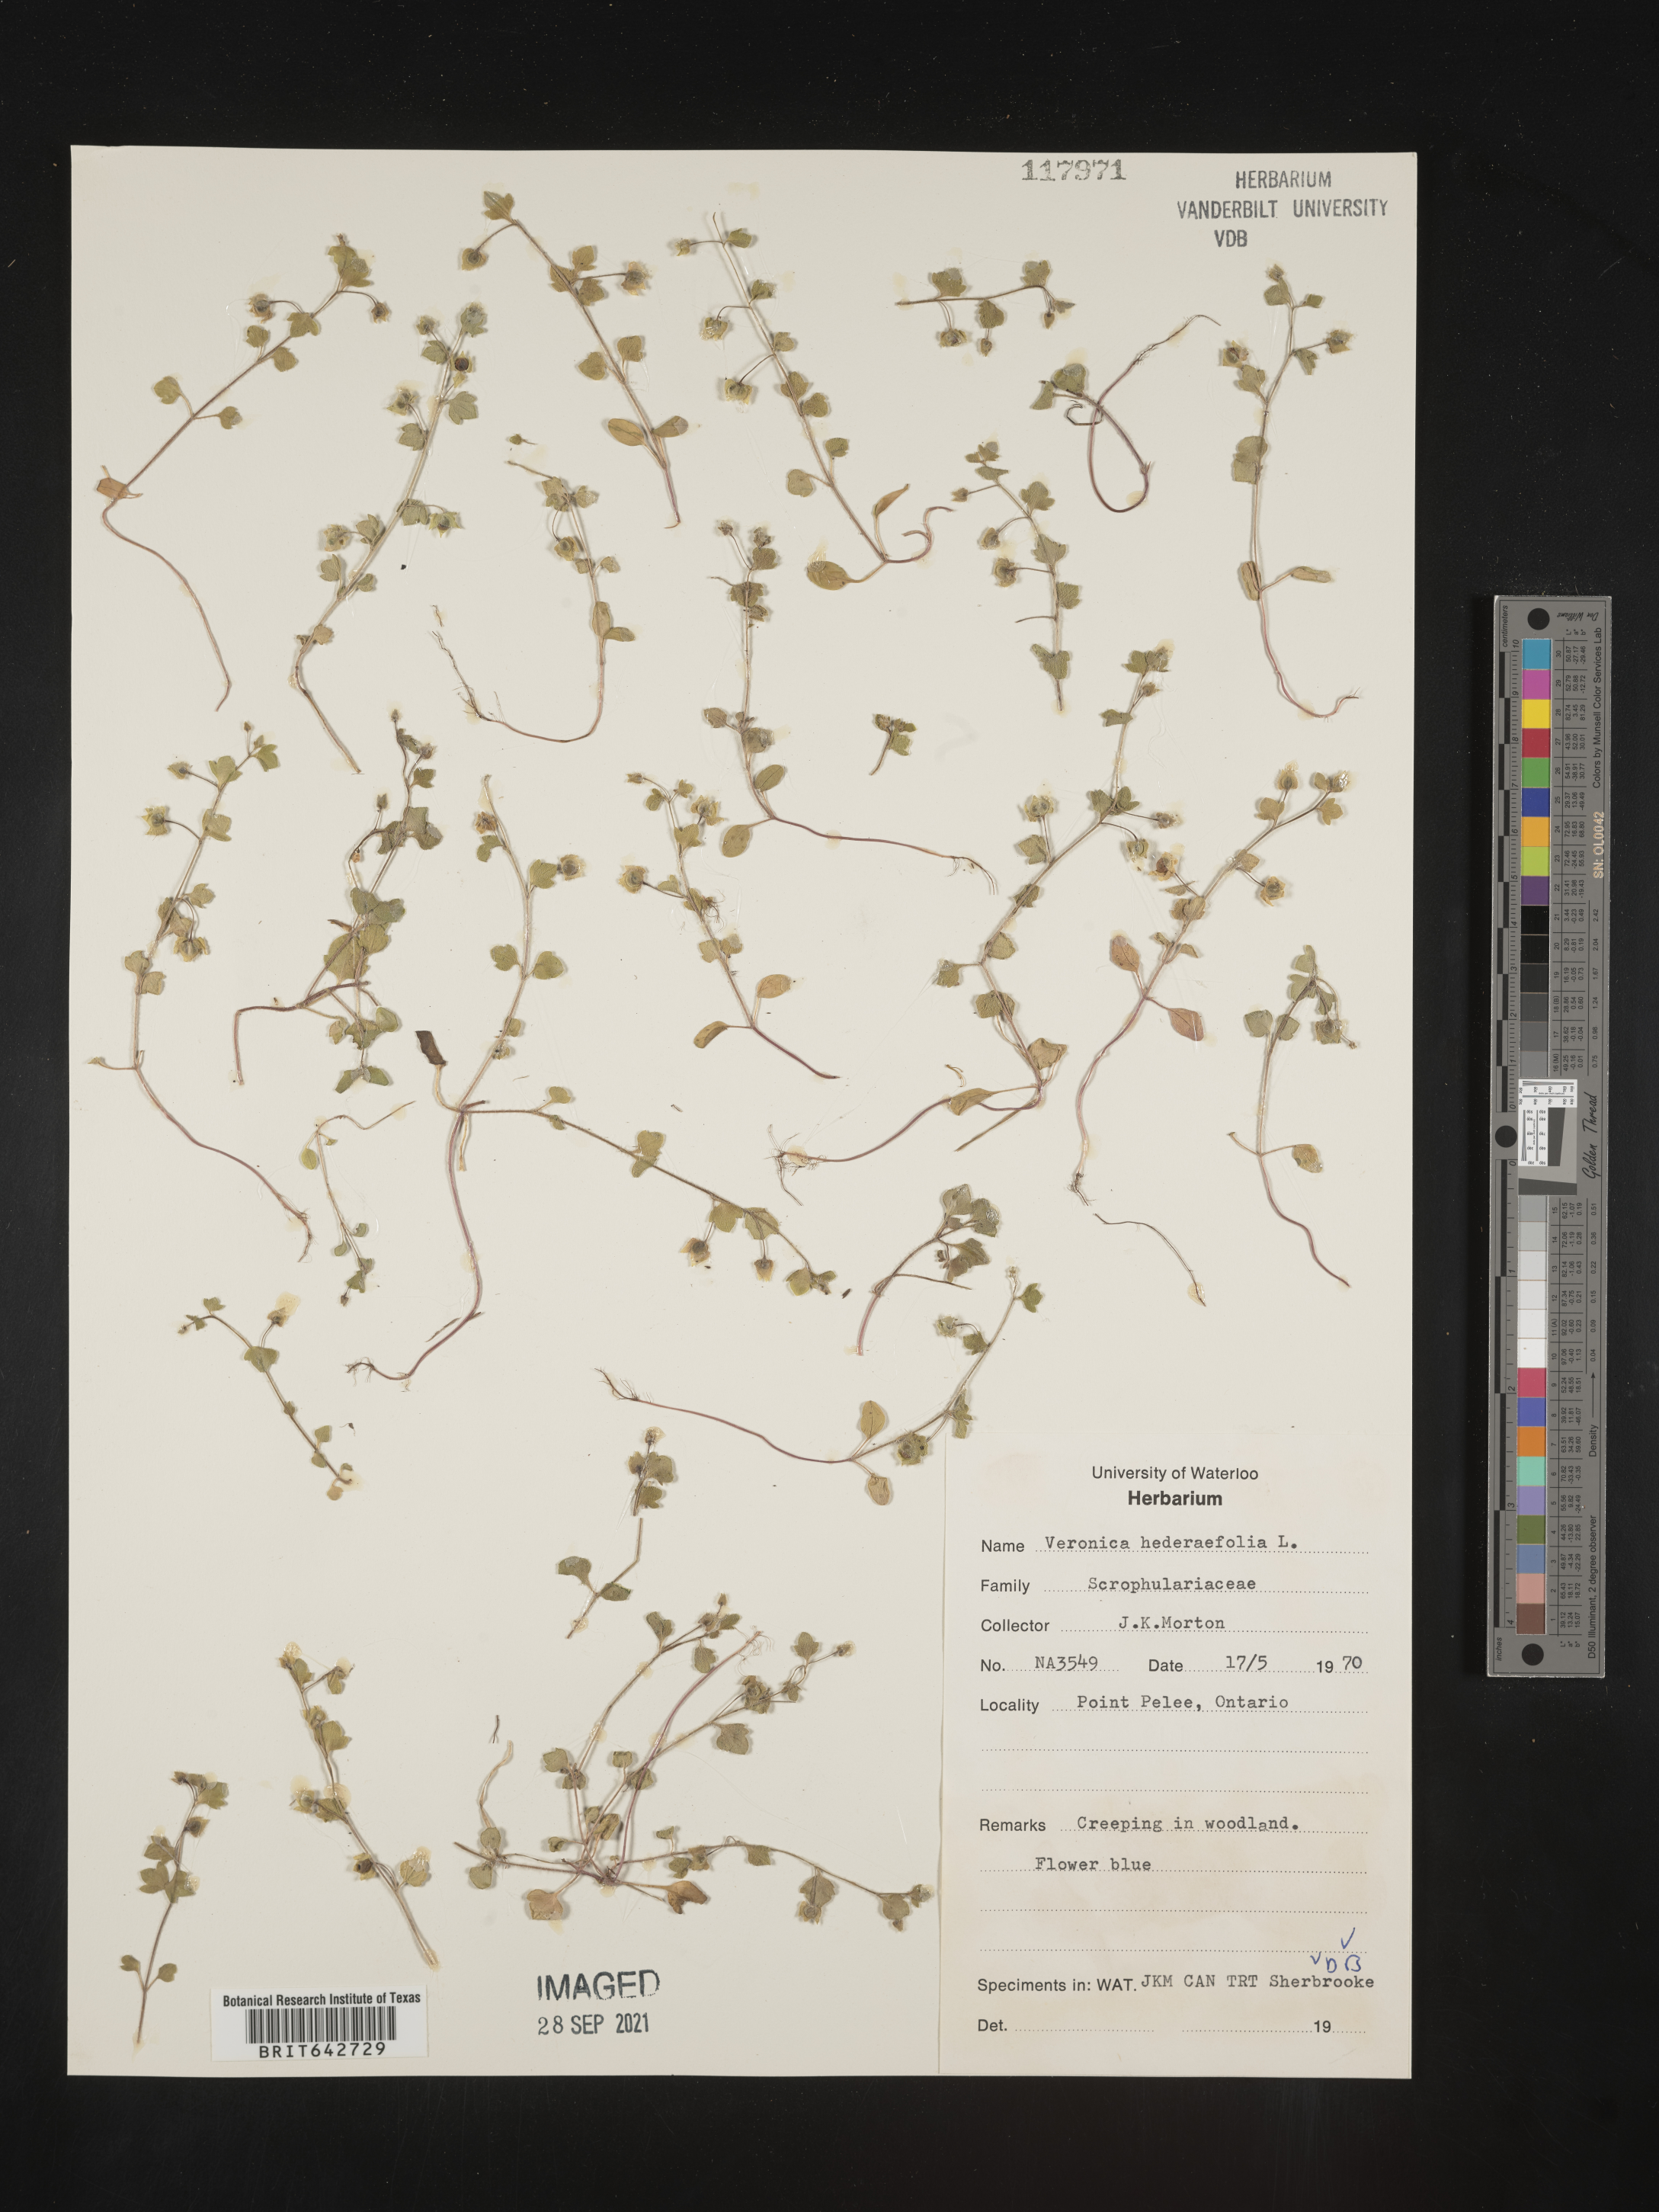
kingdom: Plantae
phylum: Tracheophyta
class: Magnoliopsida
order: Lamiales
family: Plantaginaceae
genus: Veronica
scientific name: Veronica
